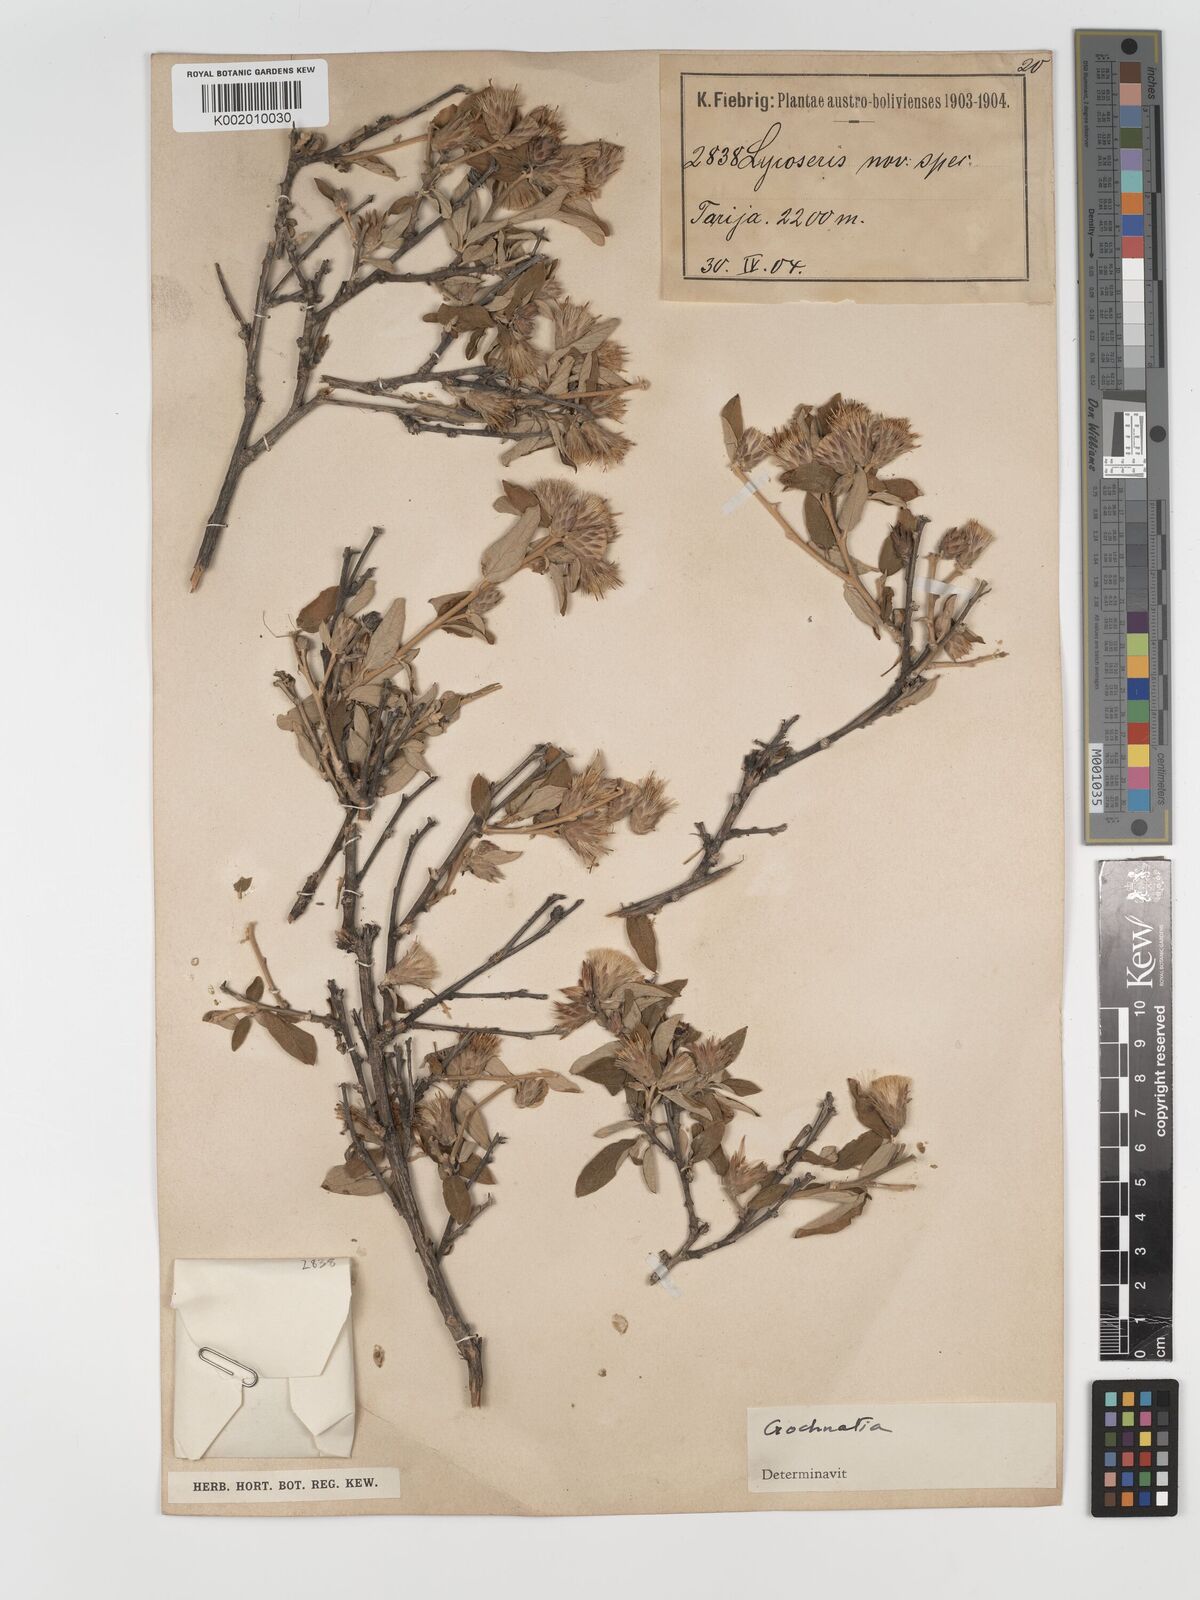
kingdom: Plantae
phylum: Tracheophyta
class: Magnoliopsida
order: Asterales
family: Asteraceae
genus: Gochnatia
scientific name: Gochnatia curviflora
